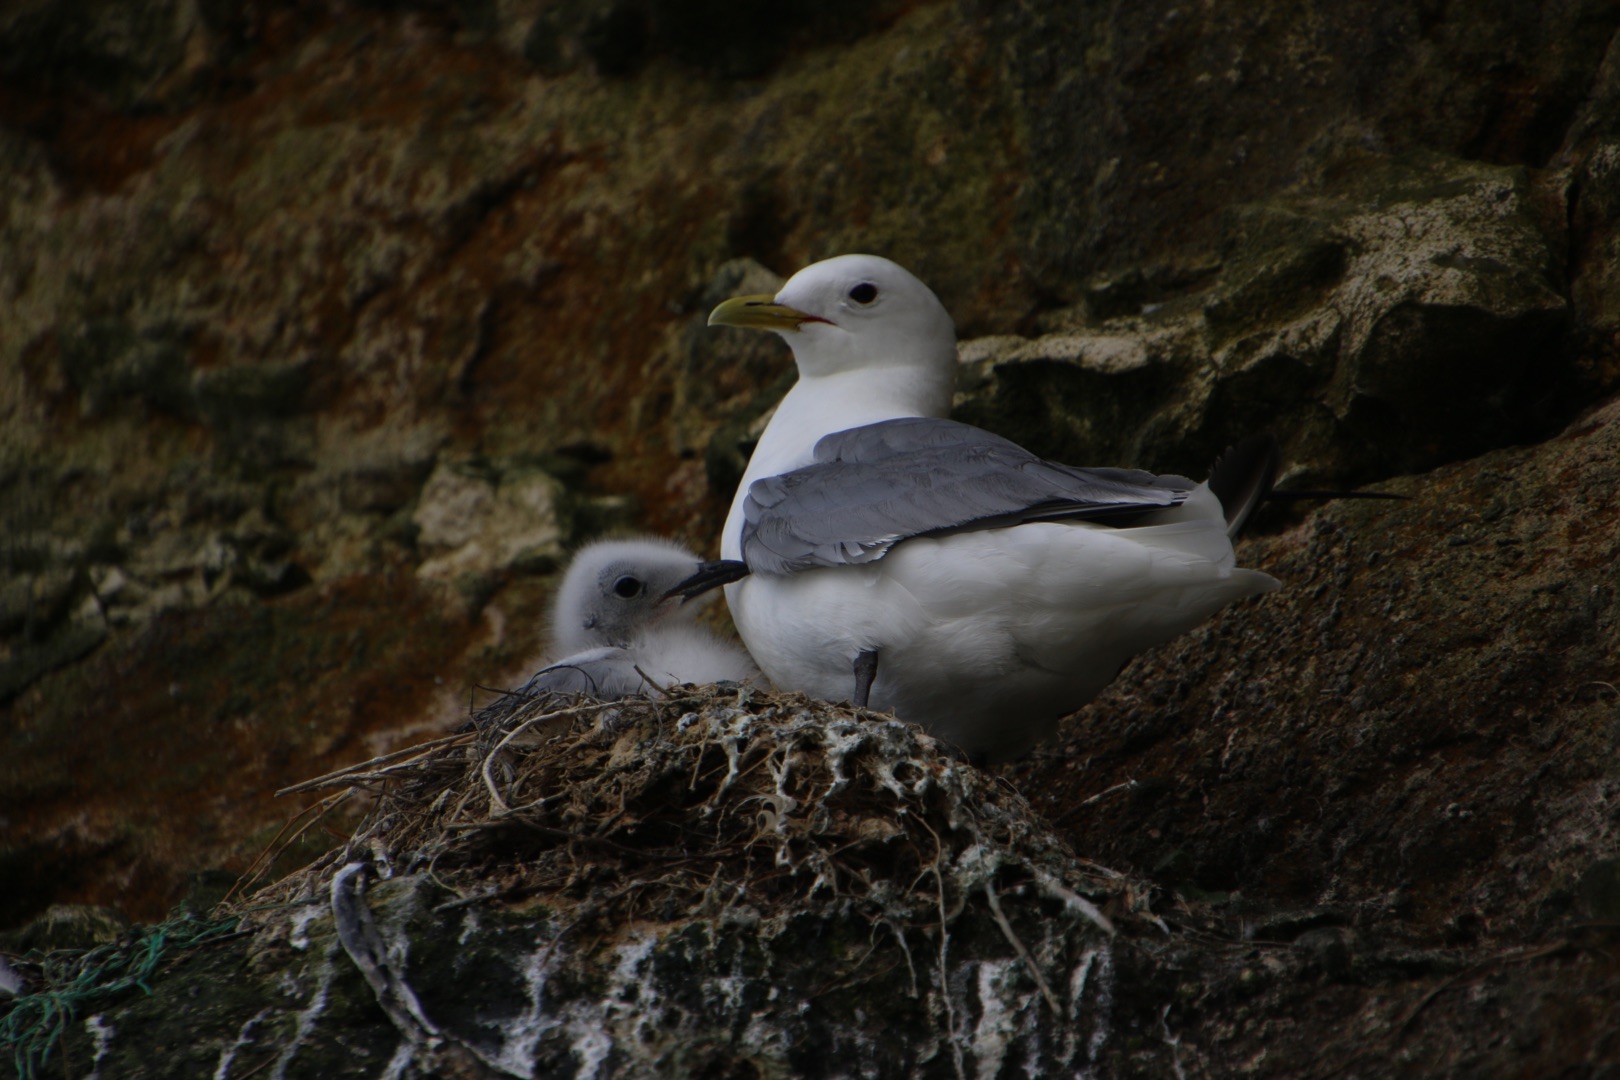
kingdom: Animalia
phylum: Chordata
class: Aves
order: Charadriiformes
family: Laridae
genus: Rissa
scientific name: Rissa tridactyla
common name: Ride
